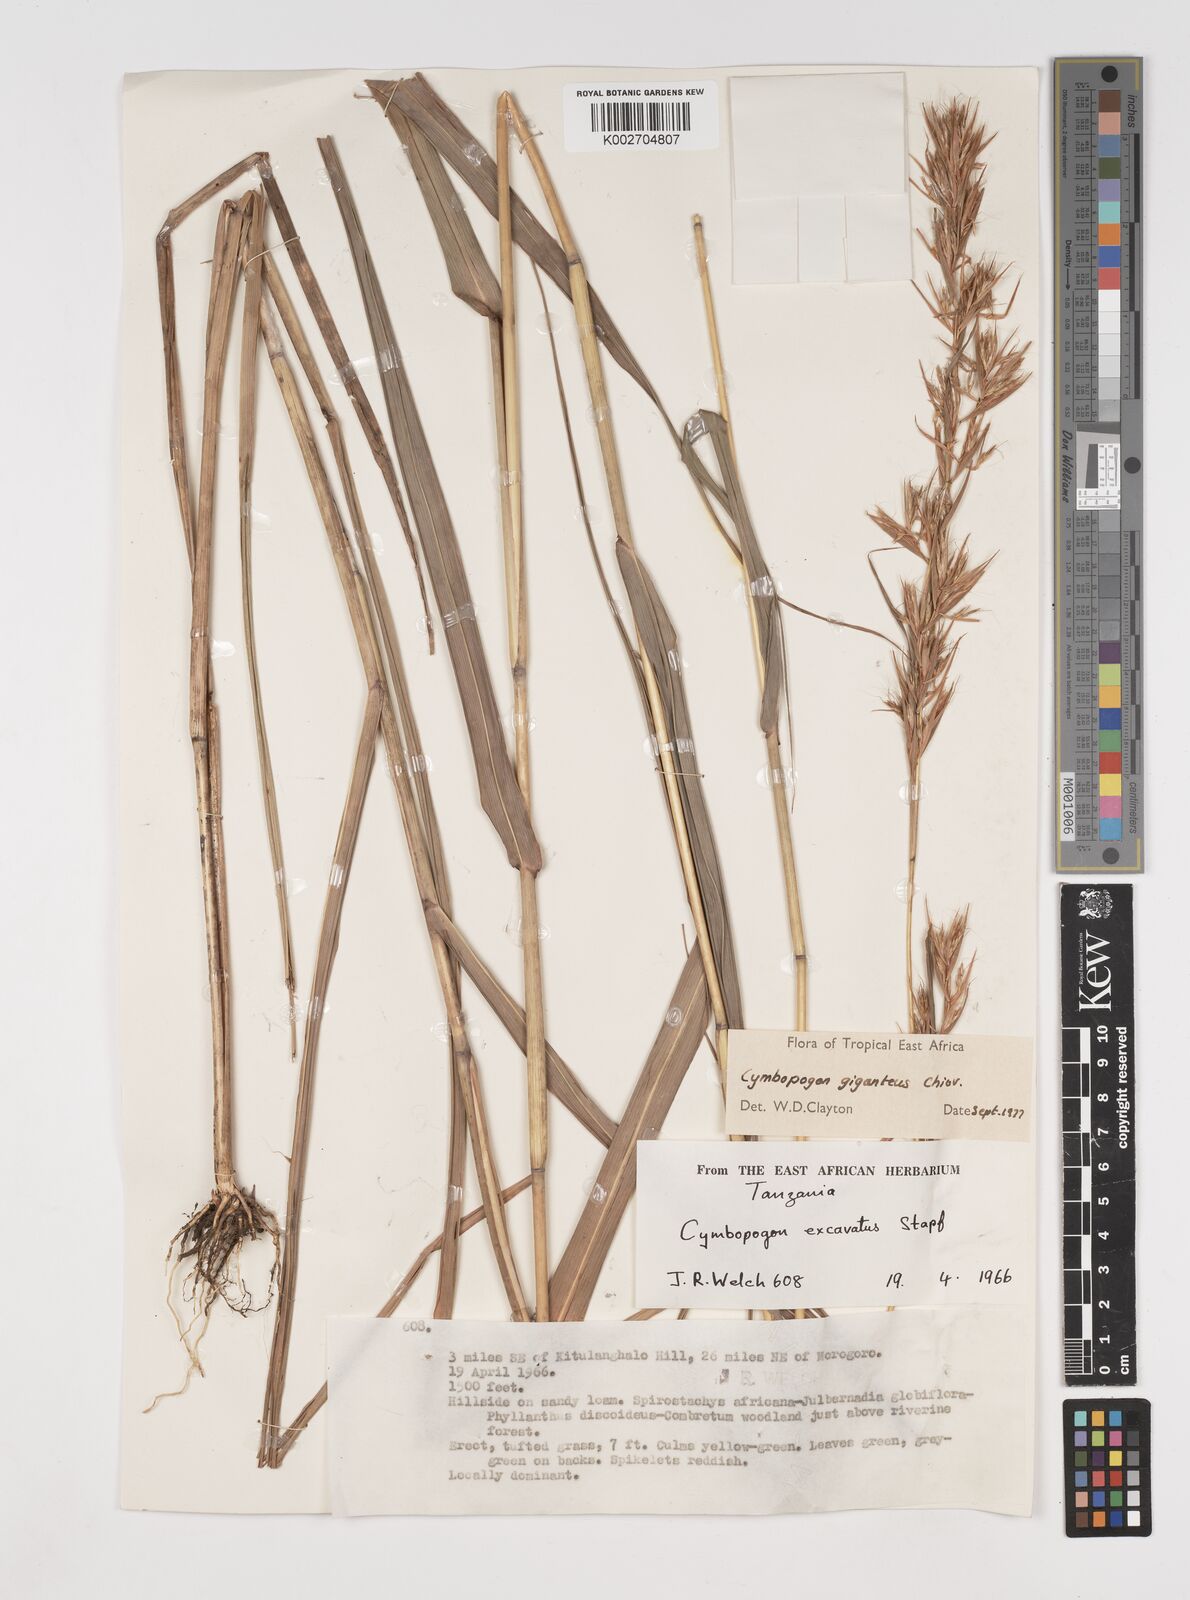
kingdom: Plantae
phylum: Tracheophyta
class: Liliopsida
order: Poales
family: Poaceae
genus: Cymbopogon
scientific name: Cymbopogon giganteus
